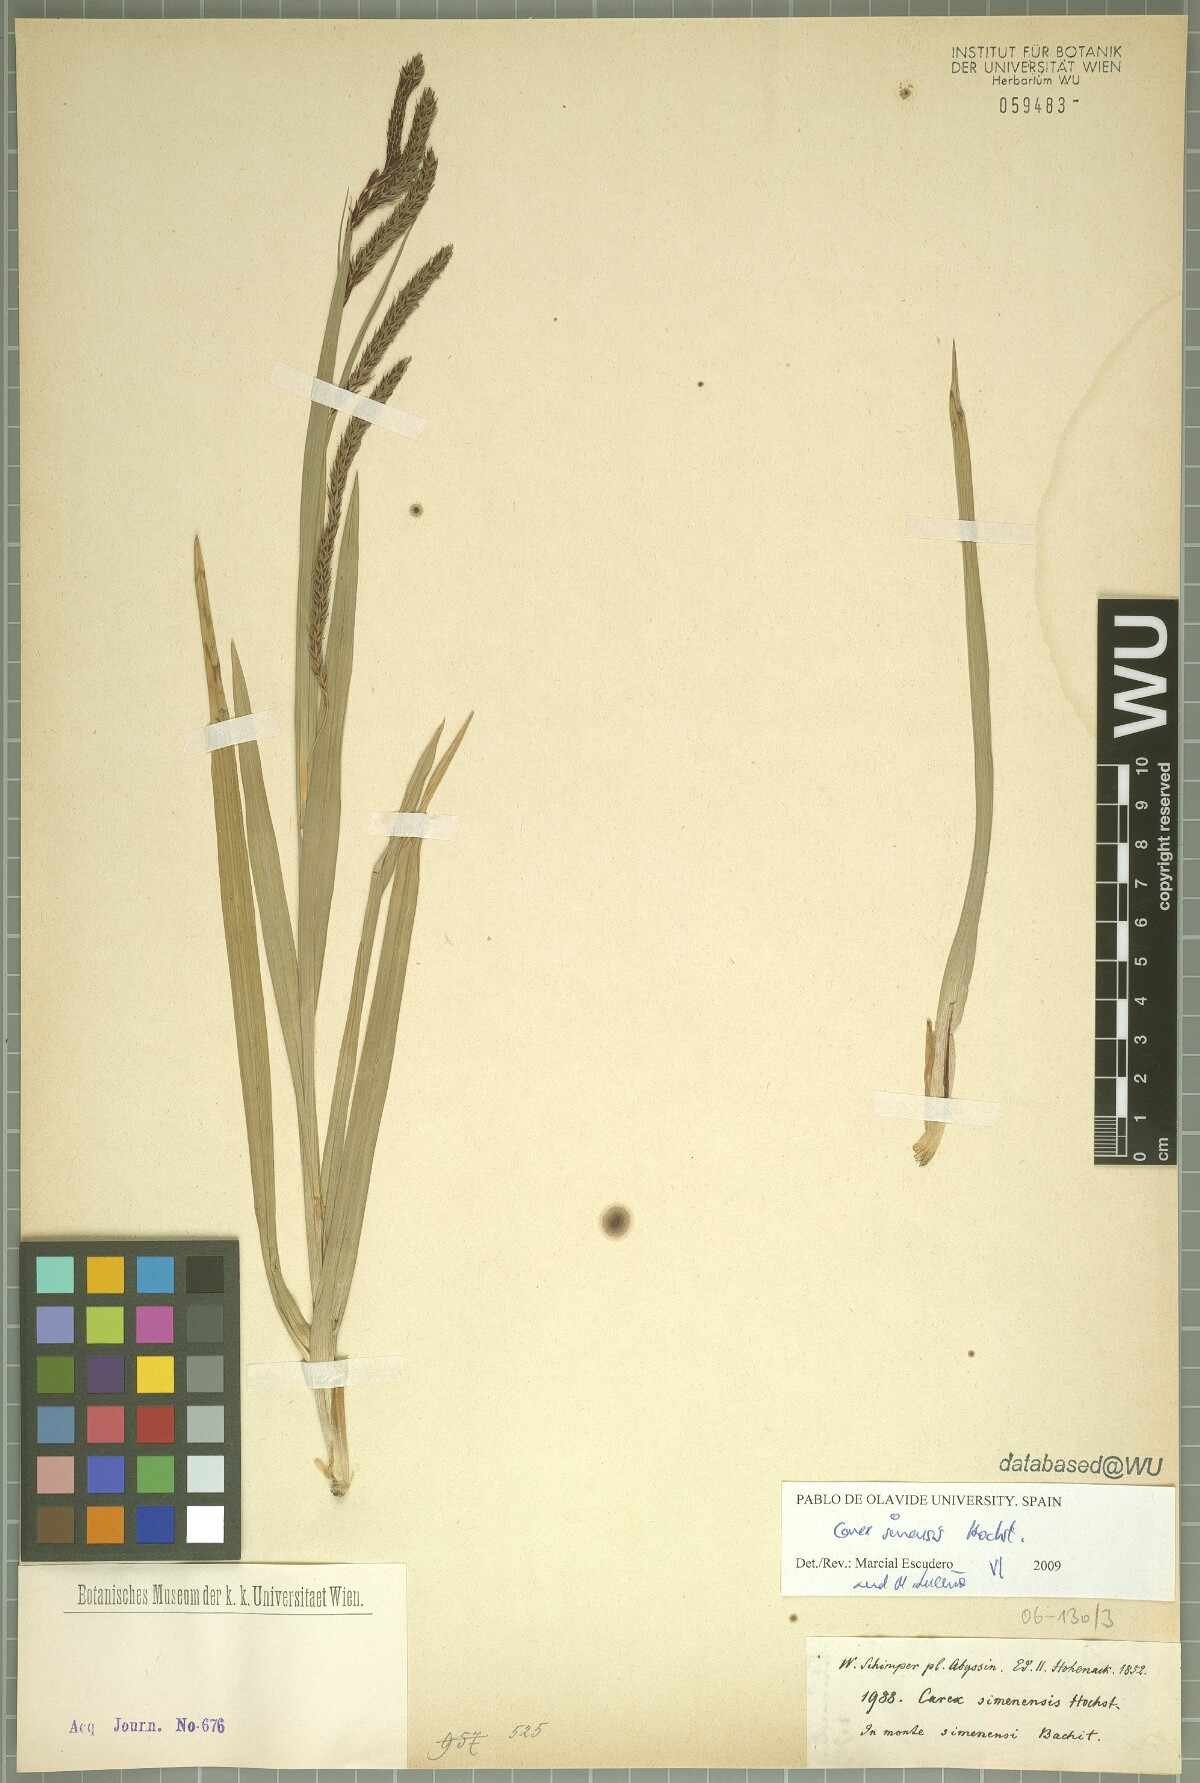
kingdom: Plantae
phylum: Tracheophyta
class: Liliopsida
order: Poales
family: Cyperaceae
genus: Carex
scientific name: Carex simensis
